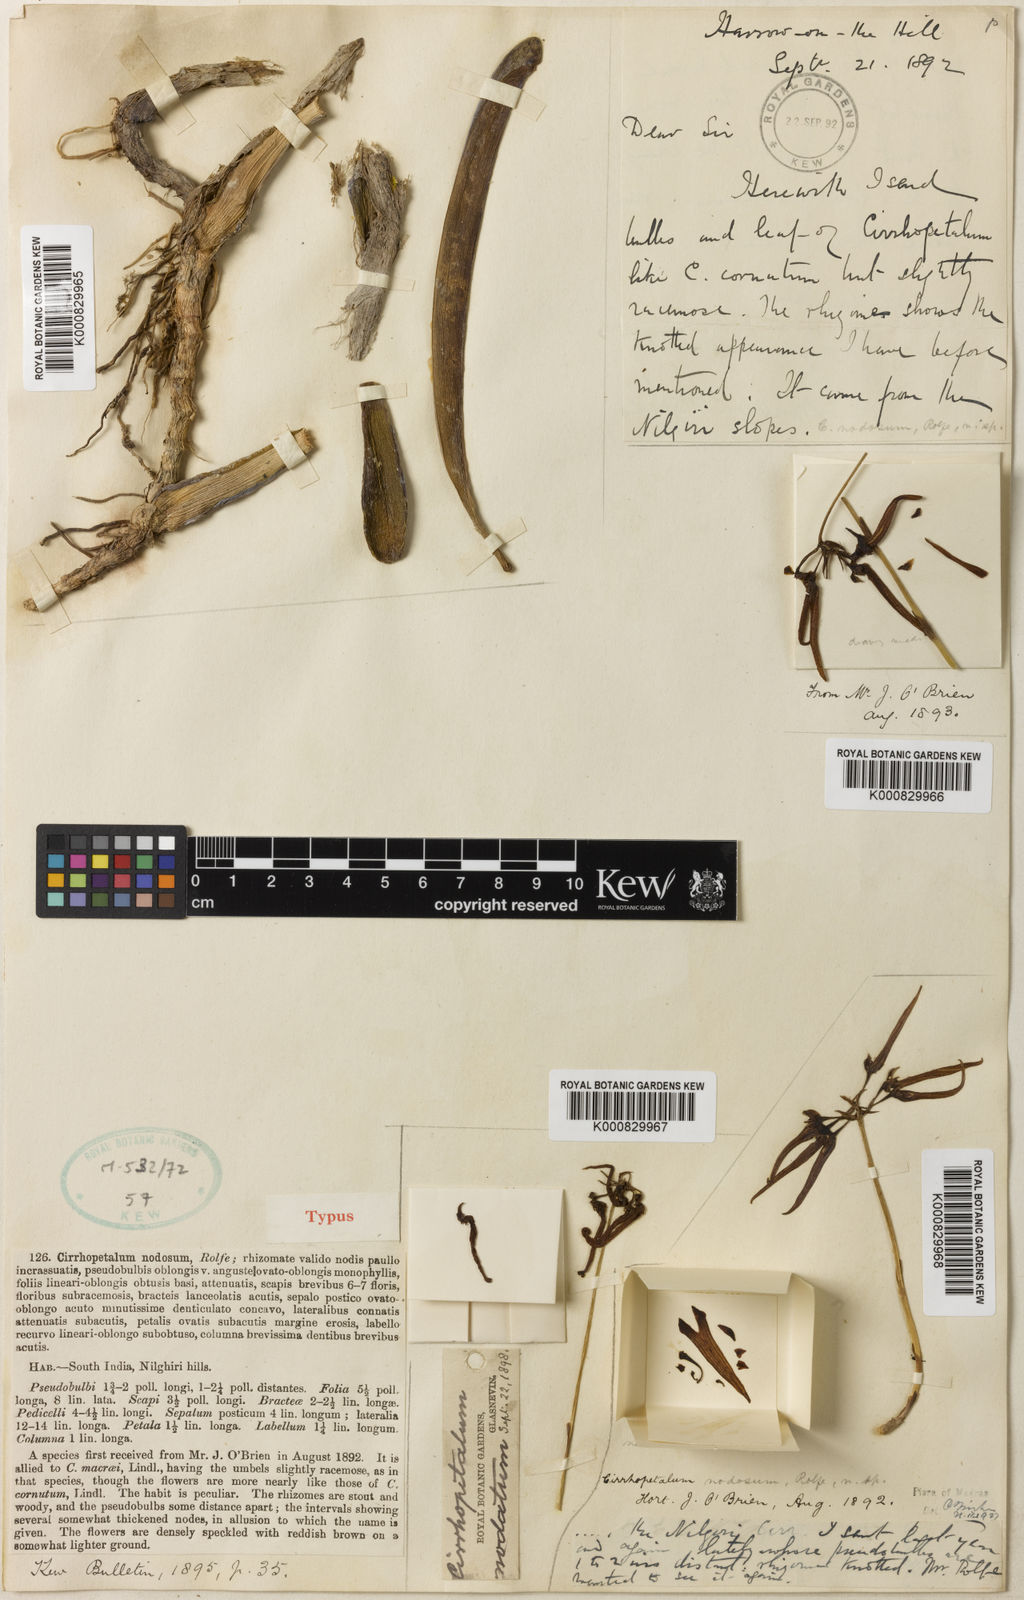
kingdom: Plantae
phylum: Tracheophyta
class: Liliopsida
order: Asparagales
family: Orchidaceae
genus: Bulbophyllum
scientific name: Bulbophyllum nodosum
